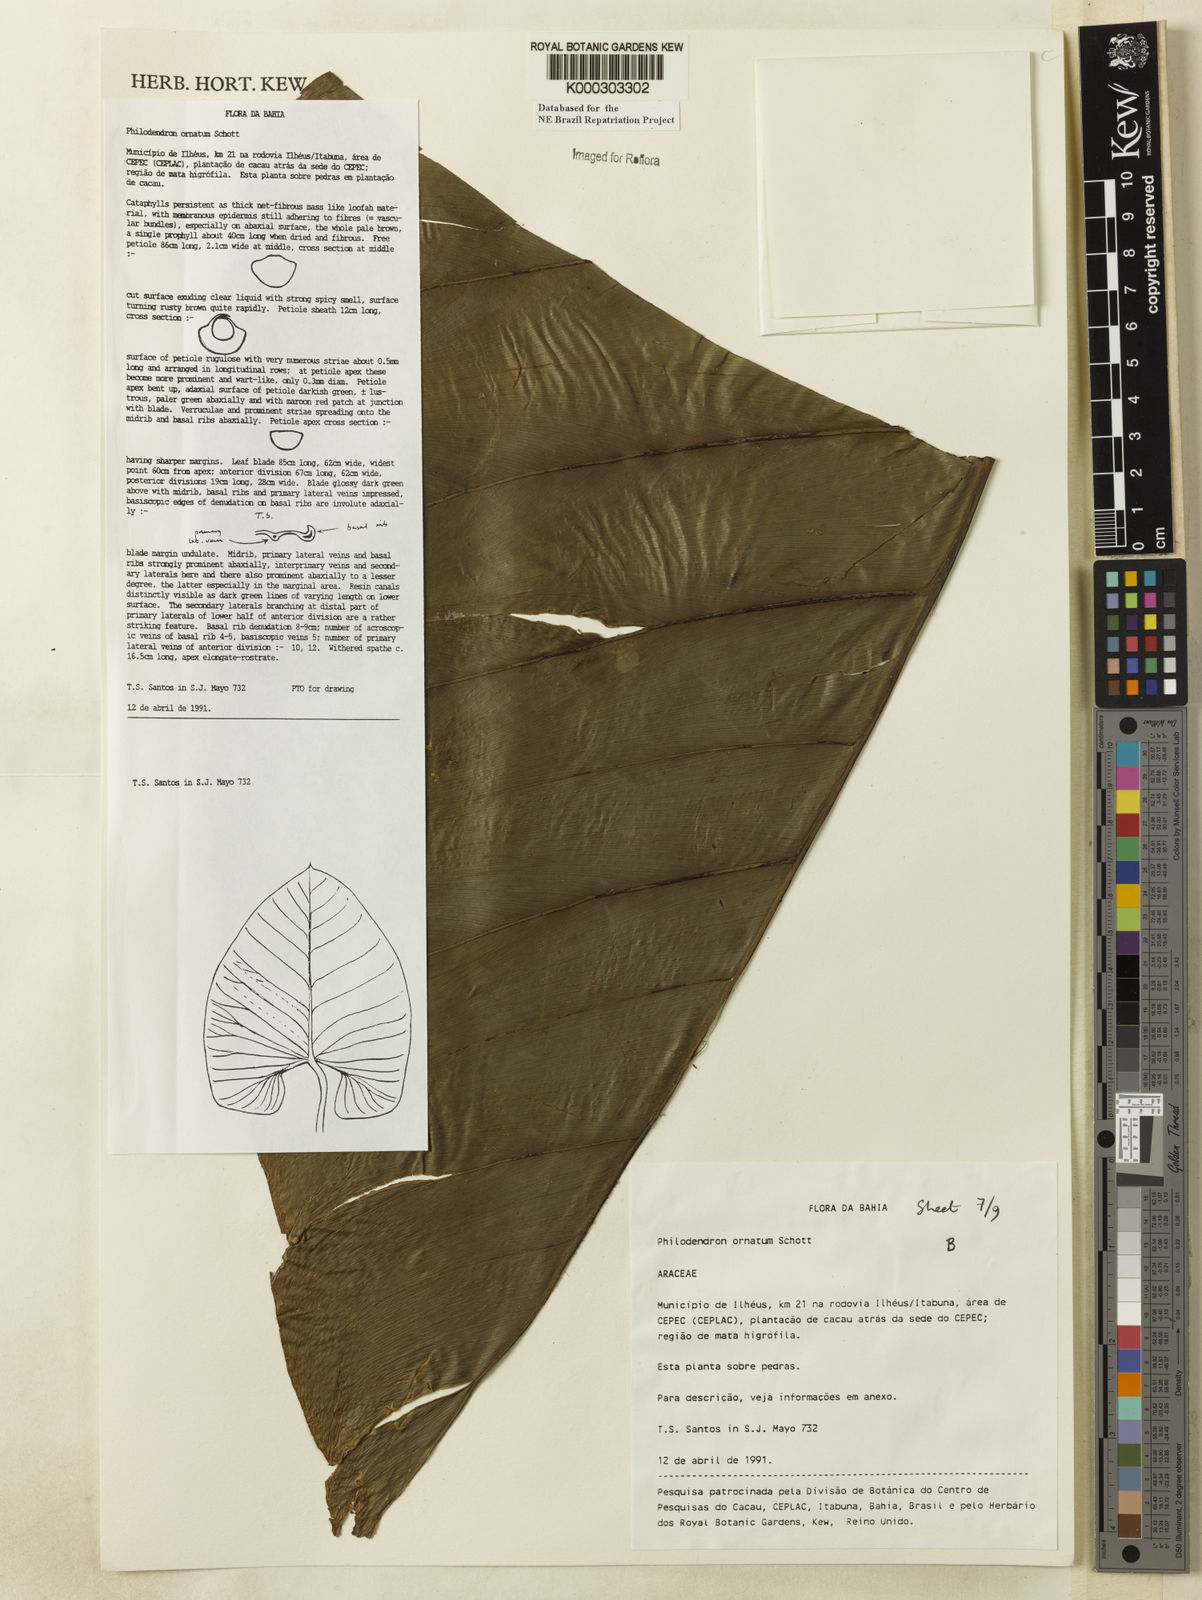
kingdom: Plantae
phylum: Tracheophyta
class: Liliopsida
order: Alismatales
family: Araceae
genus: Philodendron
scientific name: Philodendron ornatum
